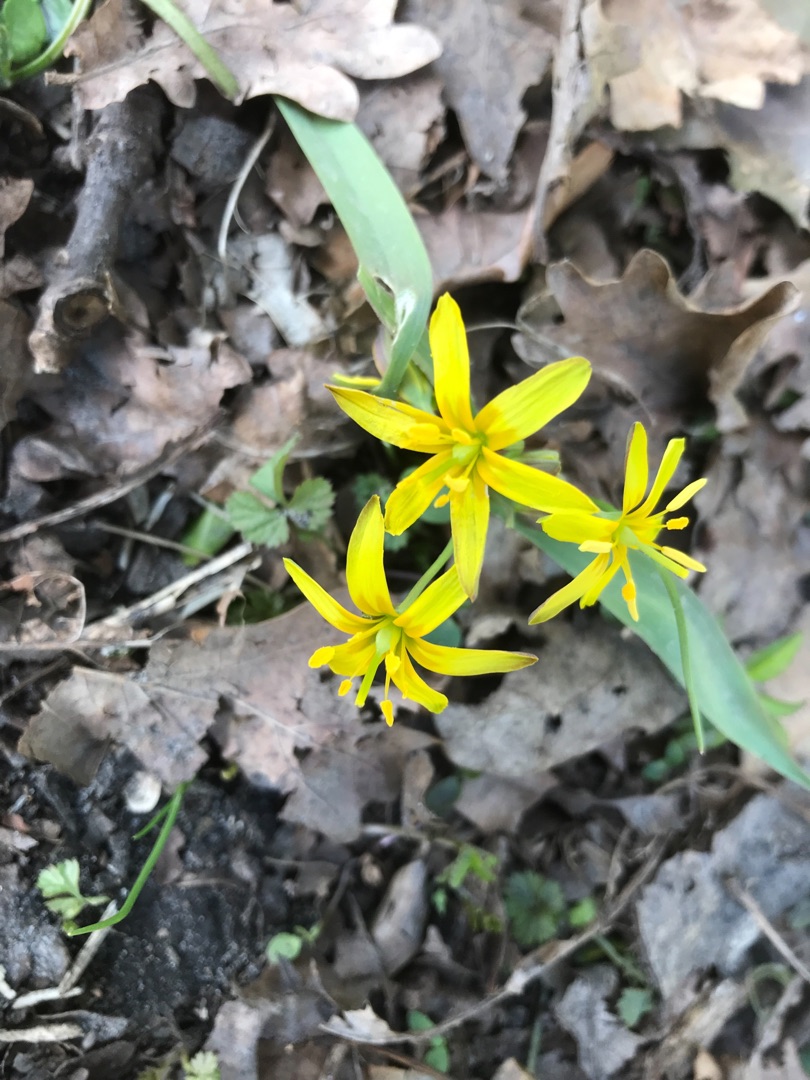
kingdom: Plantae
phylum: Tracheophyta
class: Liliopsida
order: Liliales
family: Liliaceae
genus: Gagea
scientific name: Gagea lutea
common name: Almindelig guldstjerne
